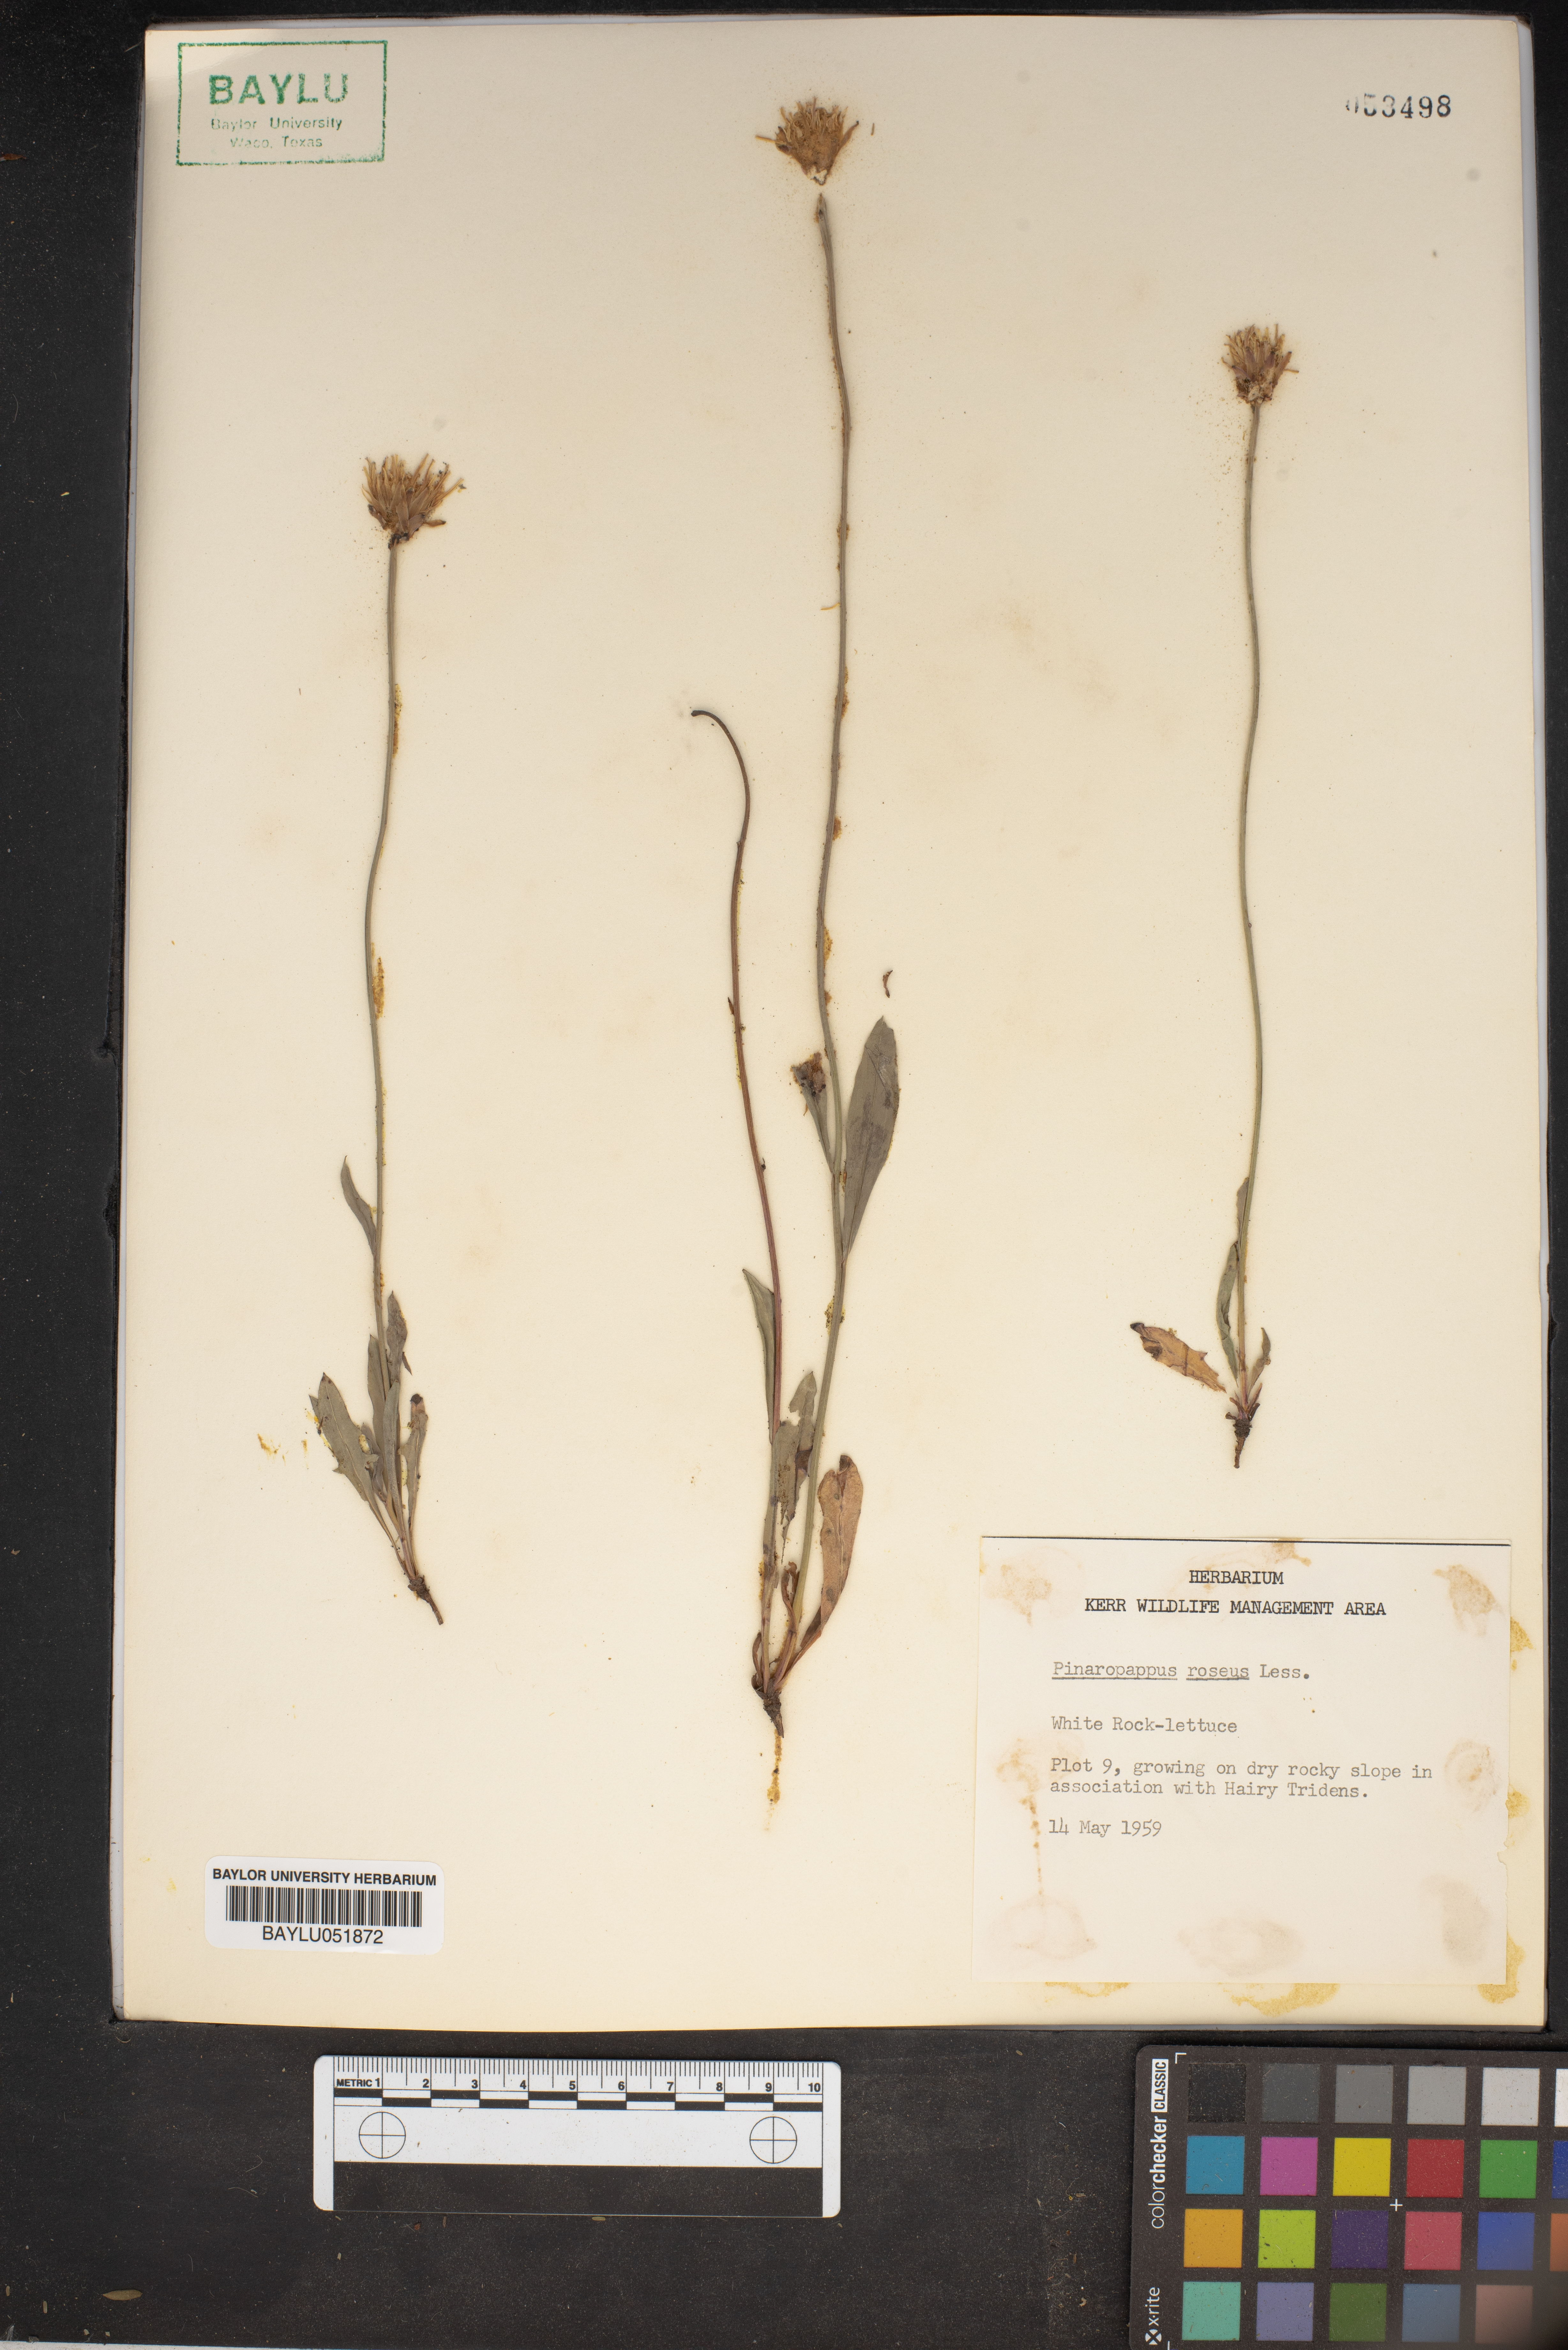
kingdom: Plantae
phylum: Tracheophyta
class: Magnoliopsida
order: Asterales
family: Asteraceae
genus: Pinaropappus
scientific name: Pinaropappus roseus
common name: Rock-lettuce
